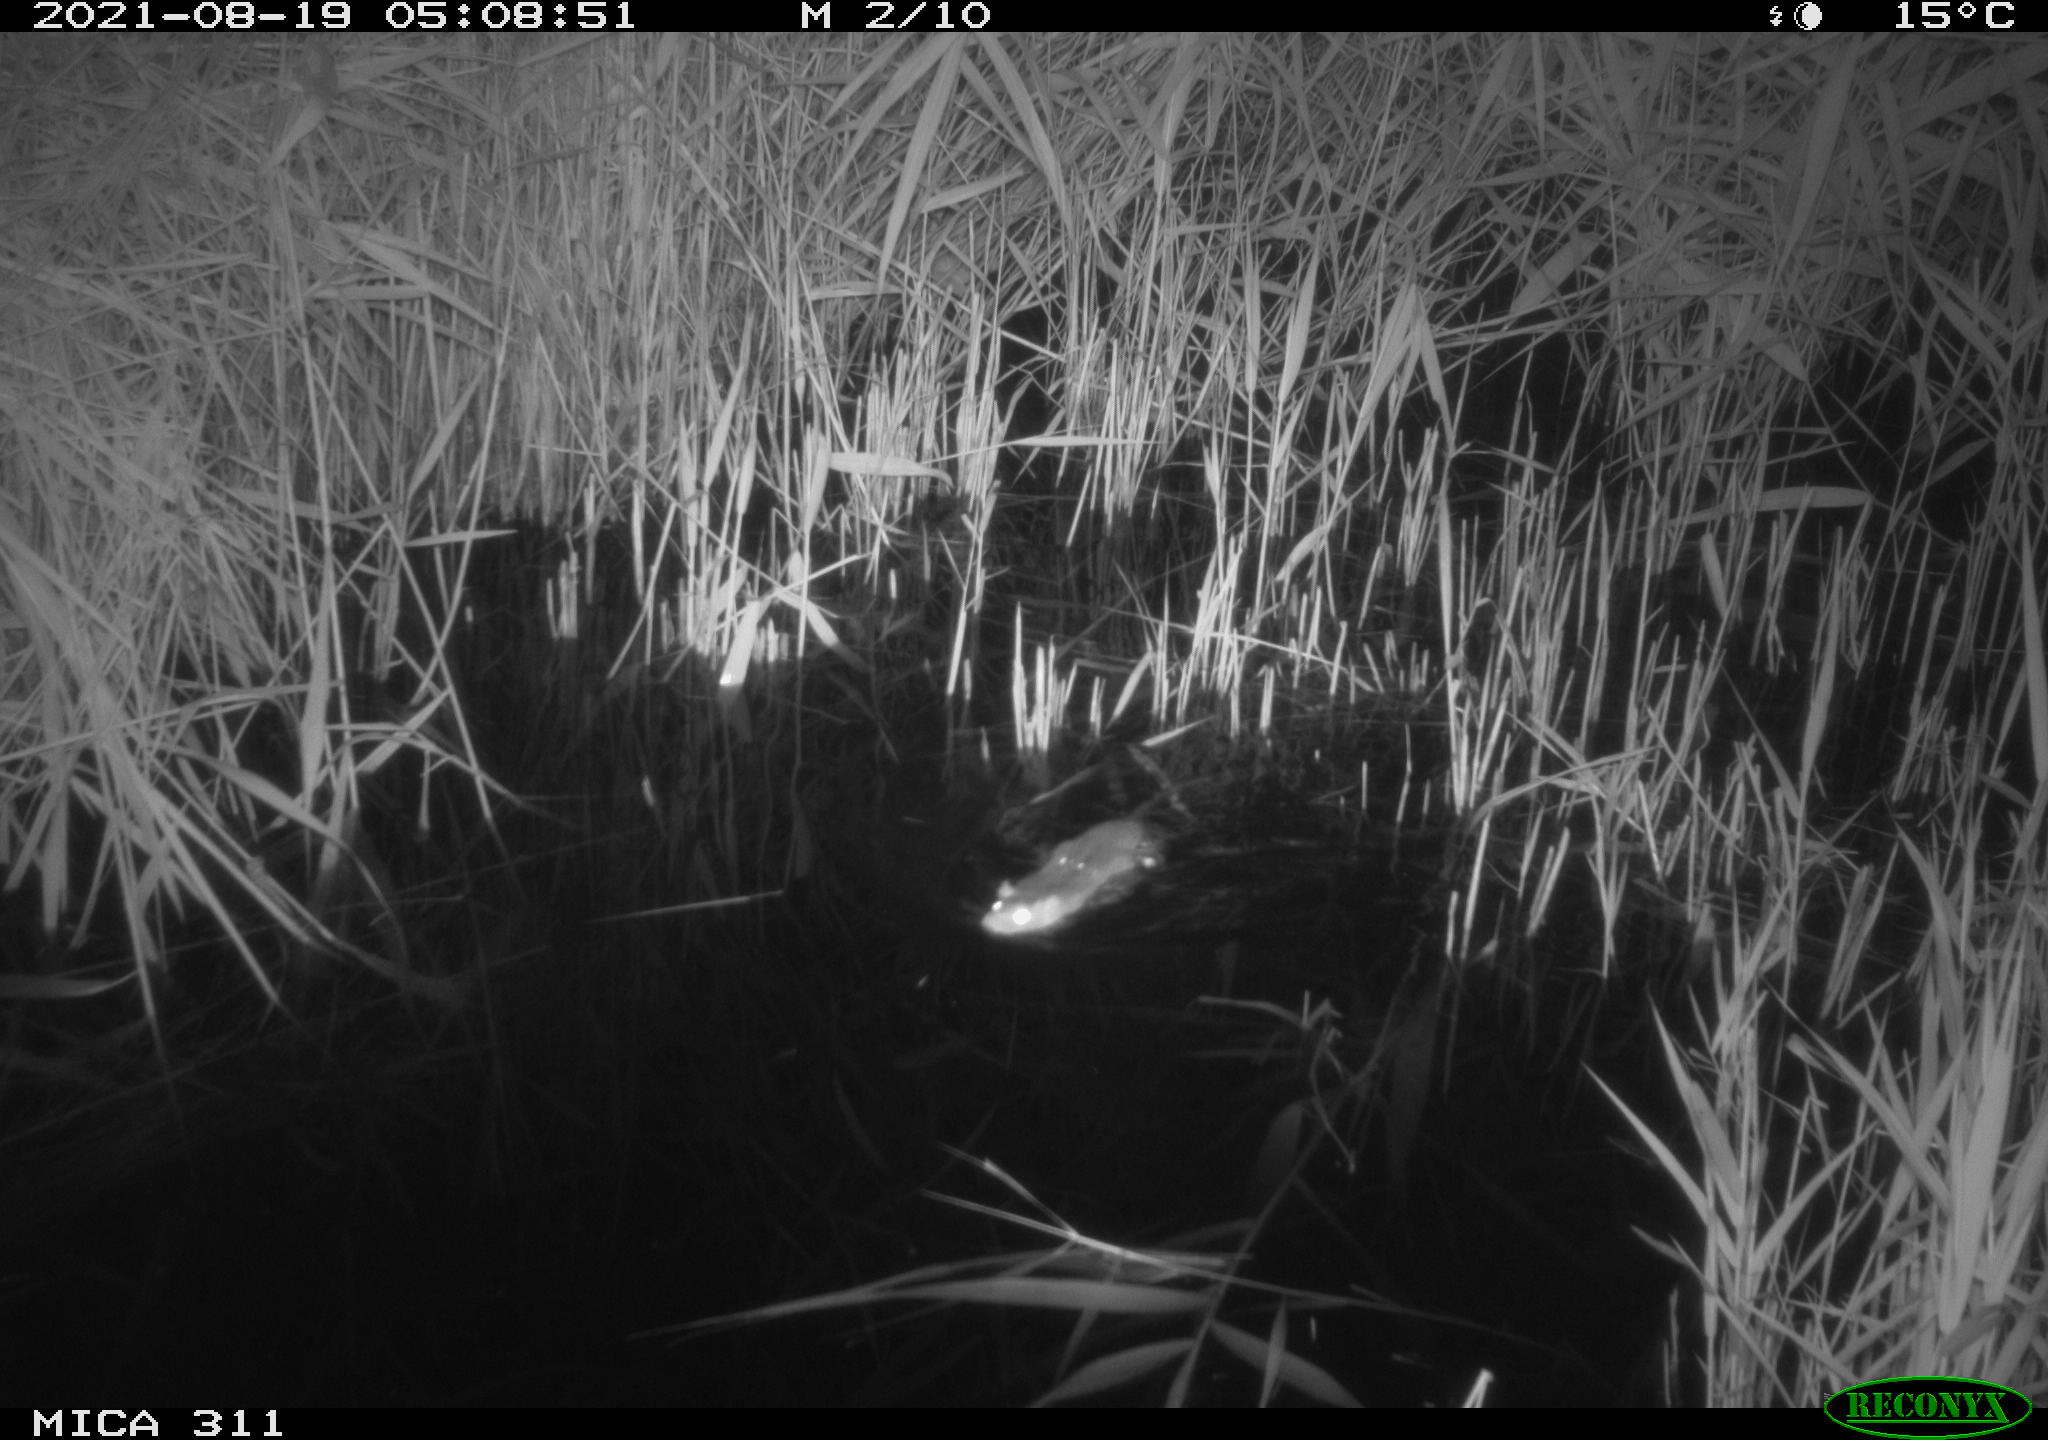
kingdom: Animalia
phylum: Chordata
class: Mammalia
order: Rodentia
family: Muridae
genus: Rattus
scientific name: Rattus norvegicus
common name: Brown rat
